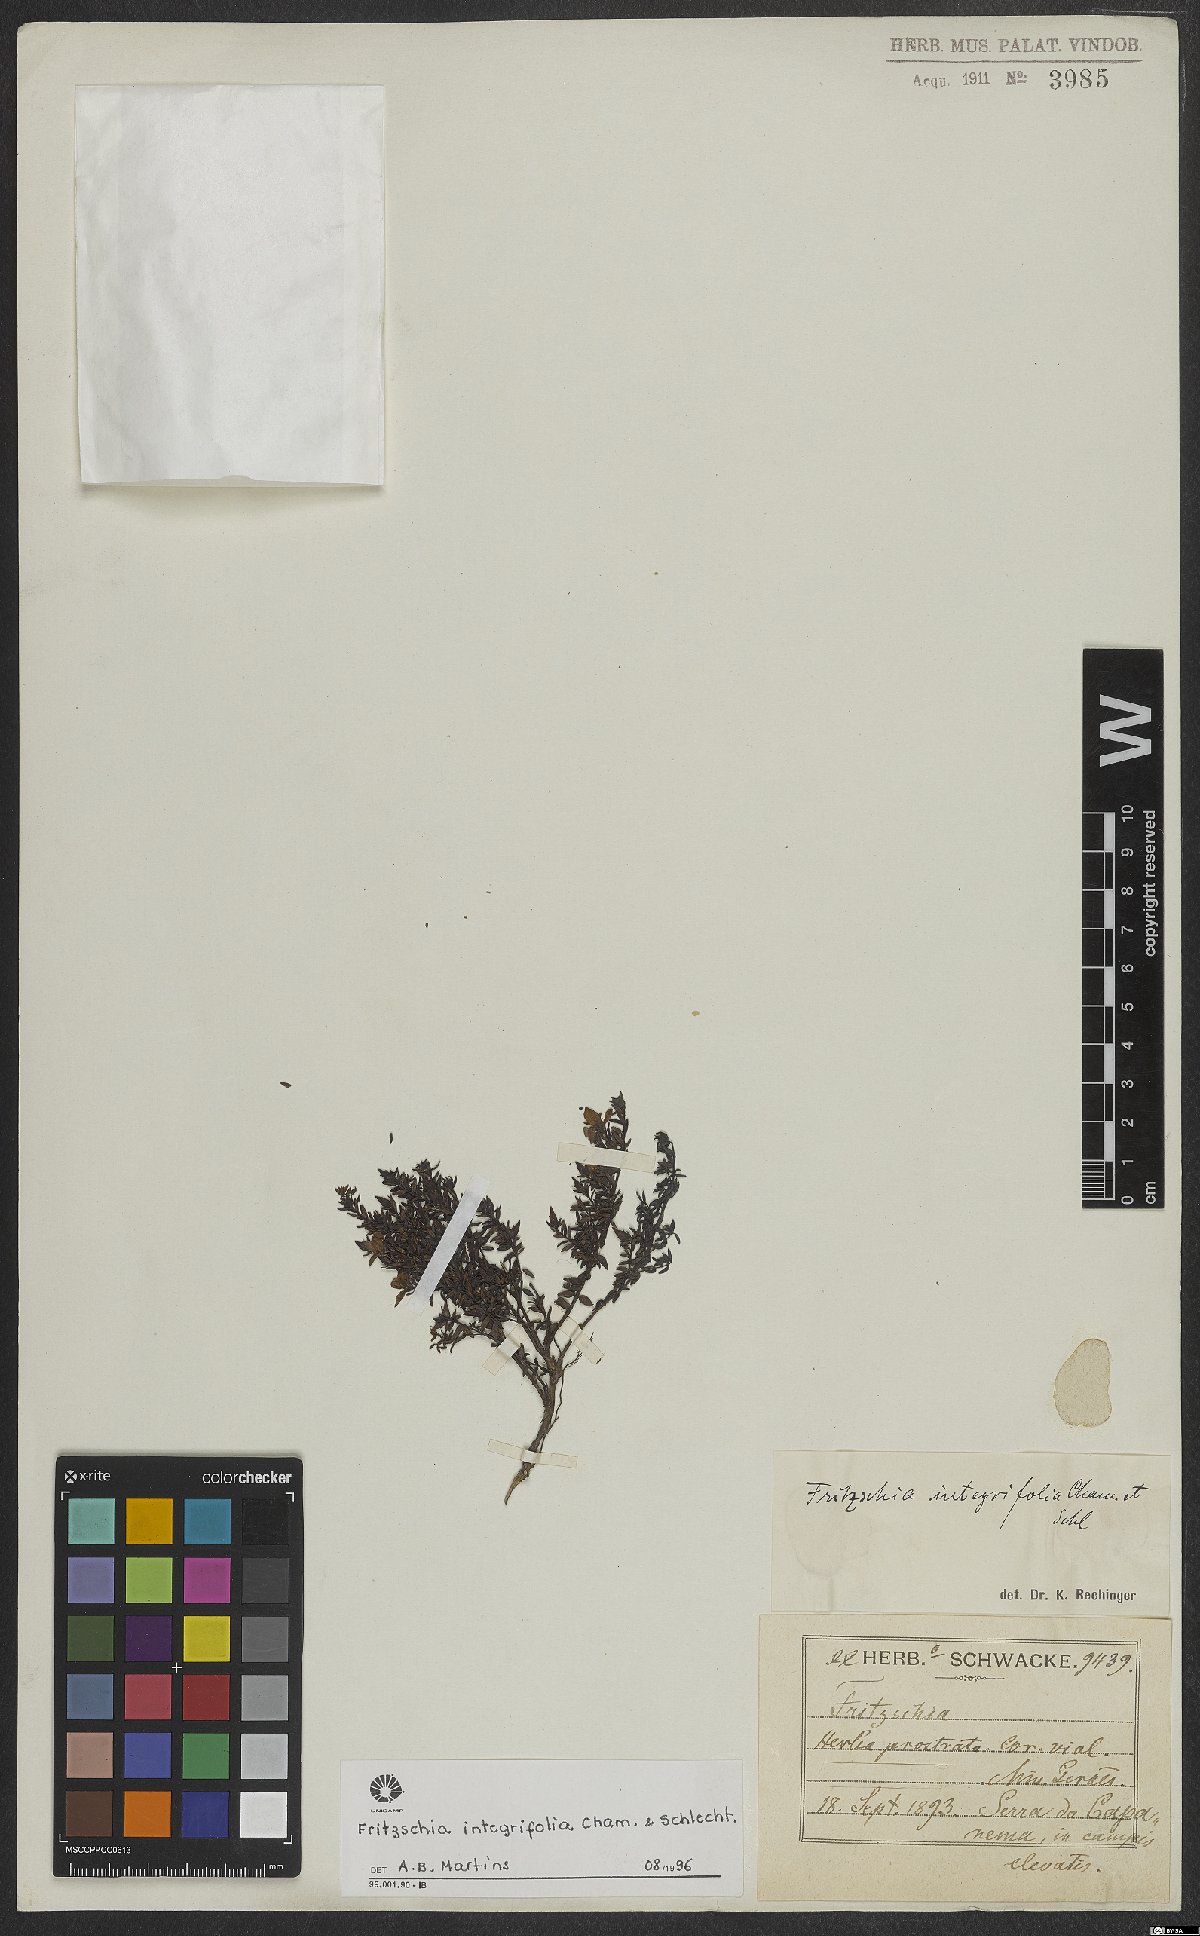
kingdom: Plantae
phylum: Tracheophyta
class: Magnoliopsida
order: Myrtales
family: Melastomataceae
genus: Fritzschia
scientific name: Fritzschia integrifolia
